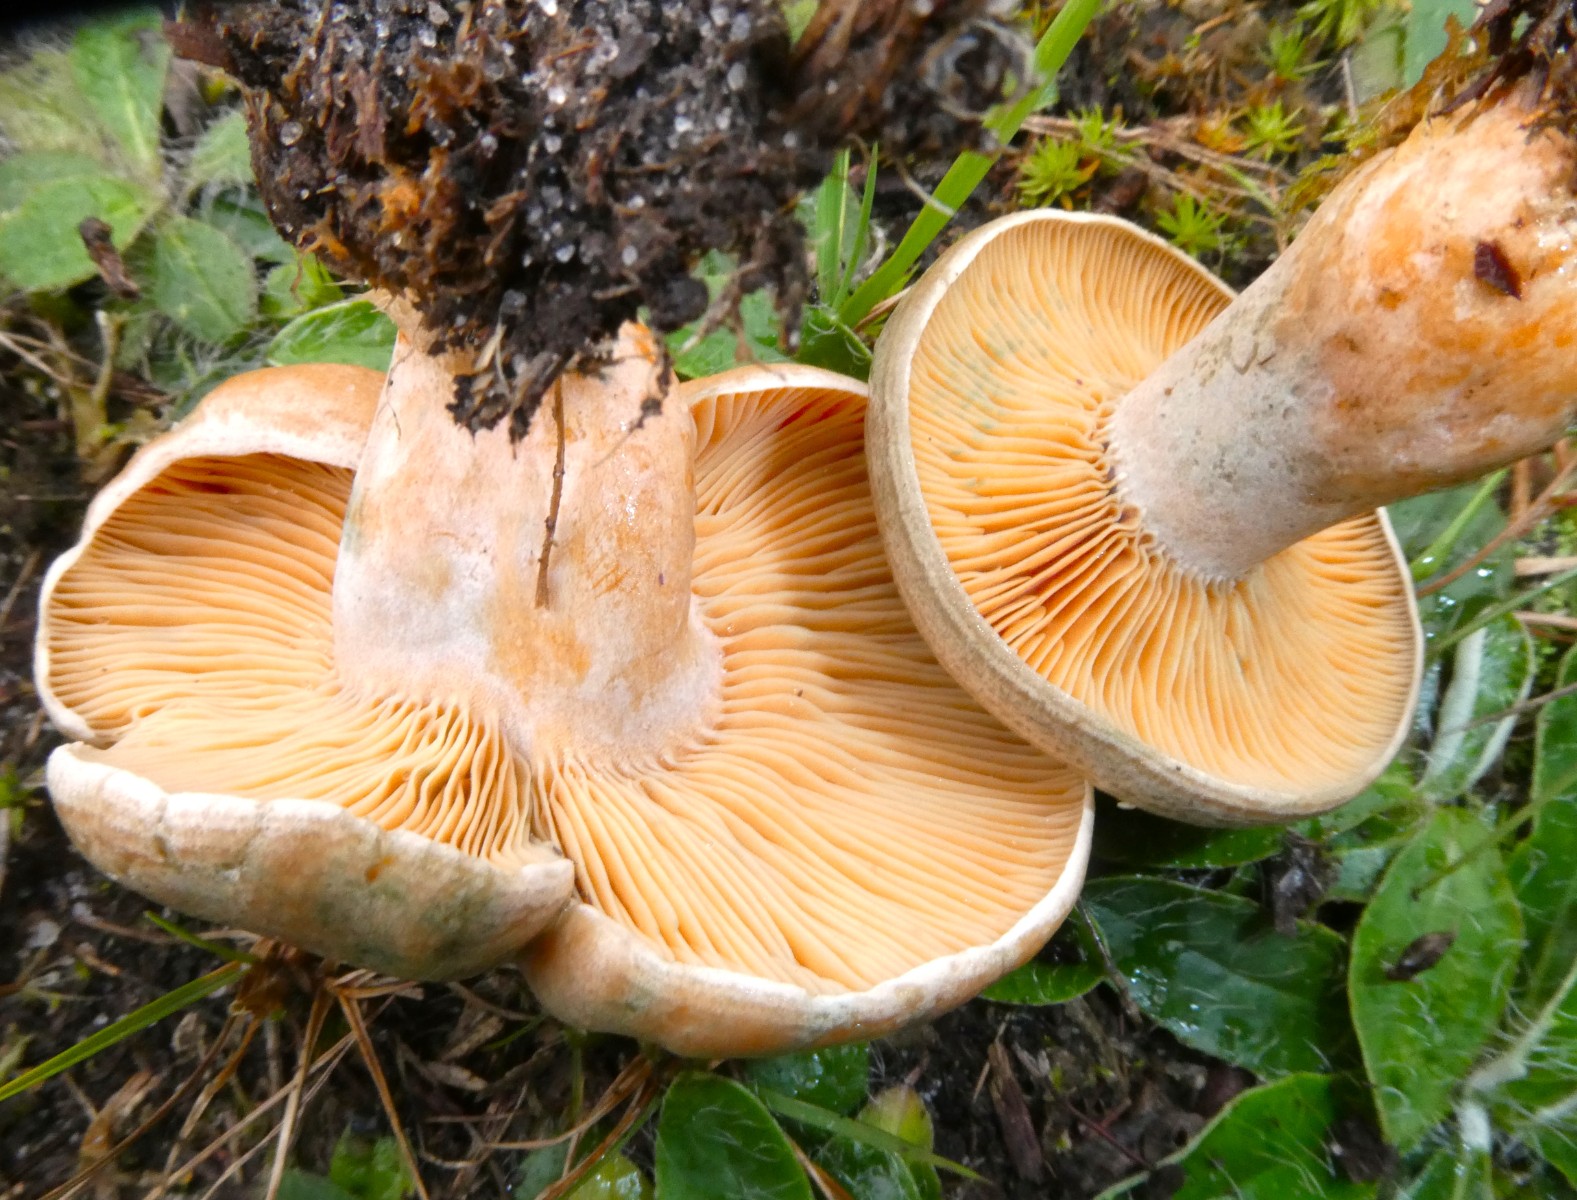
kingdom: Fungi
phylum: Basidiomycota
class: Agaricomycetes
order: Russulales
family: Russulaceae
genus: Lactarius
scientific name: Lactarius quieticolor
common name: tvefarvet mælkehat
